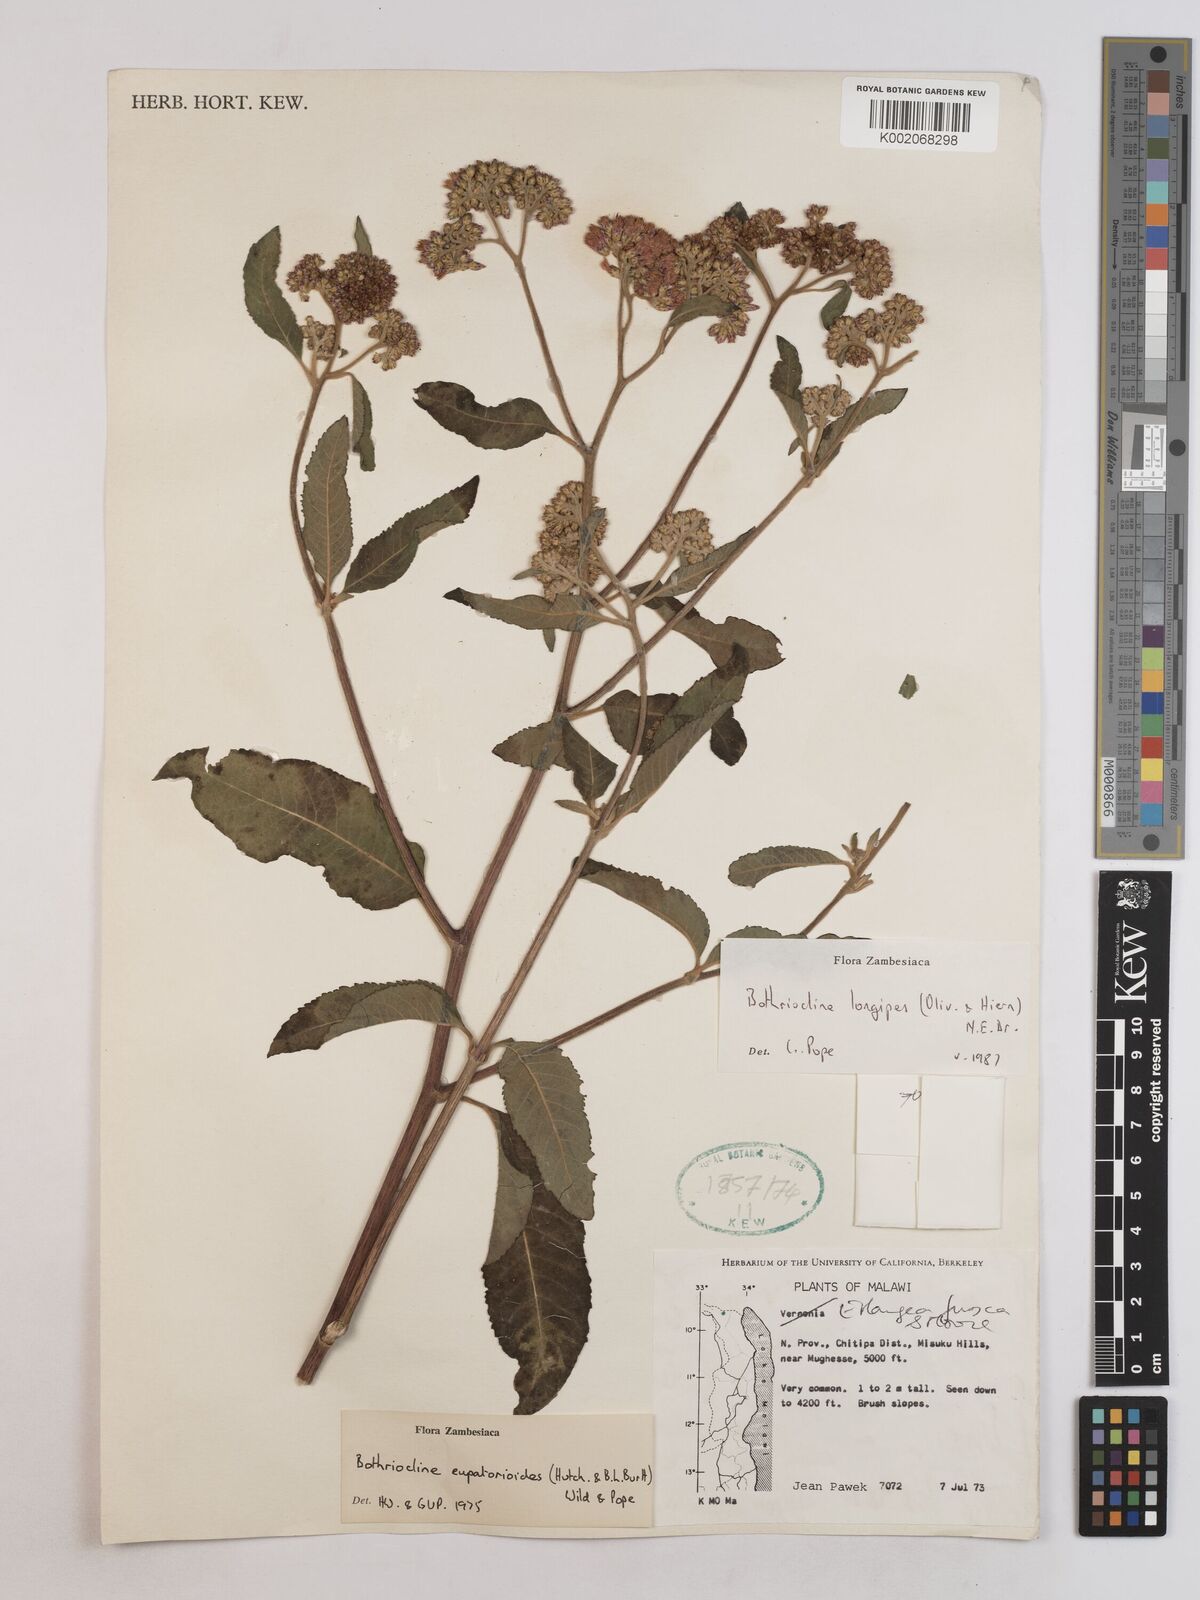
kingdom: Plantae
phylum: Tracheophyta
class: Magnoliopsida
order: Asterales
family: Asteraceae
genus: Bothriocline
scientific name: Bothriocline longipes
